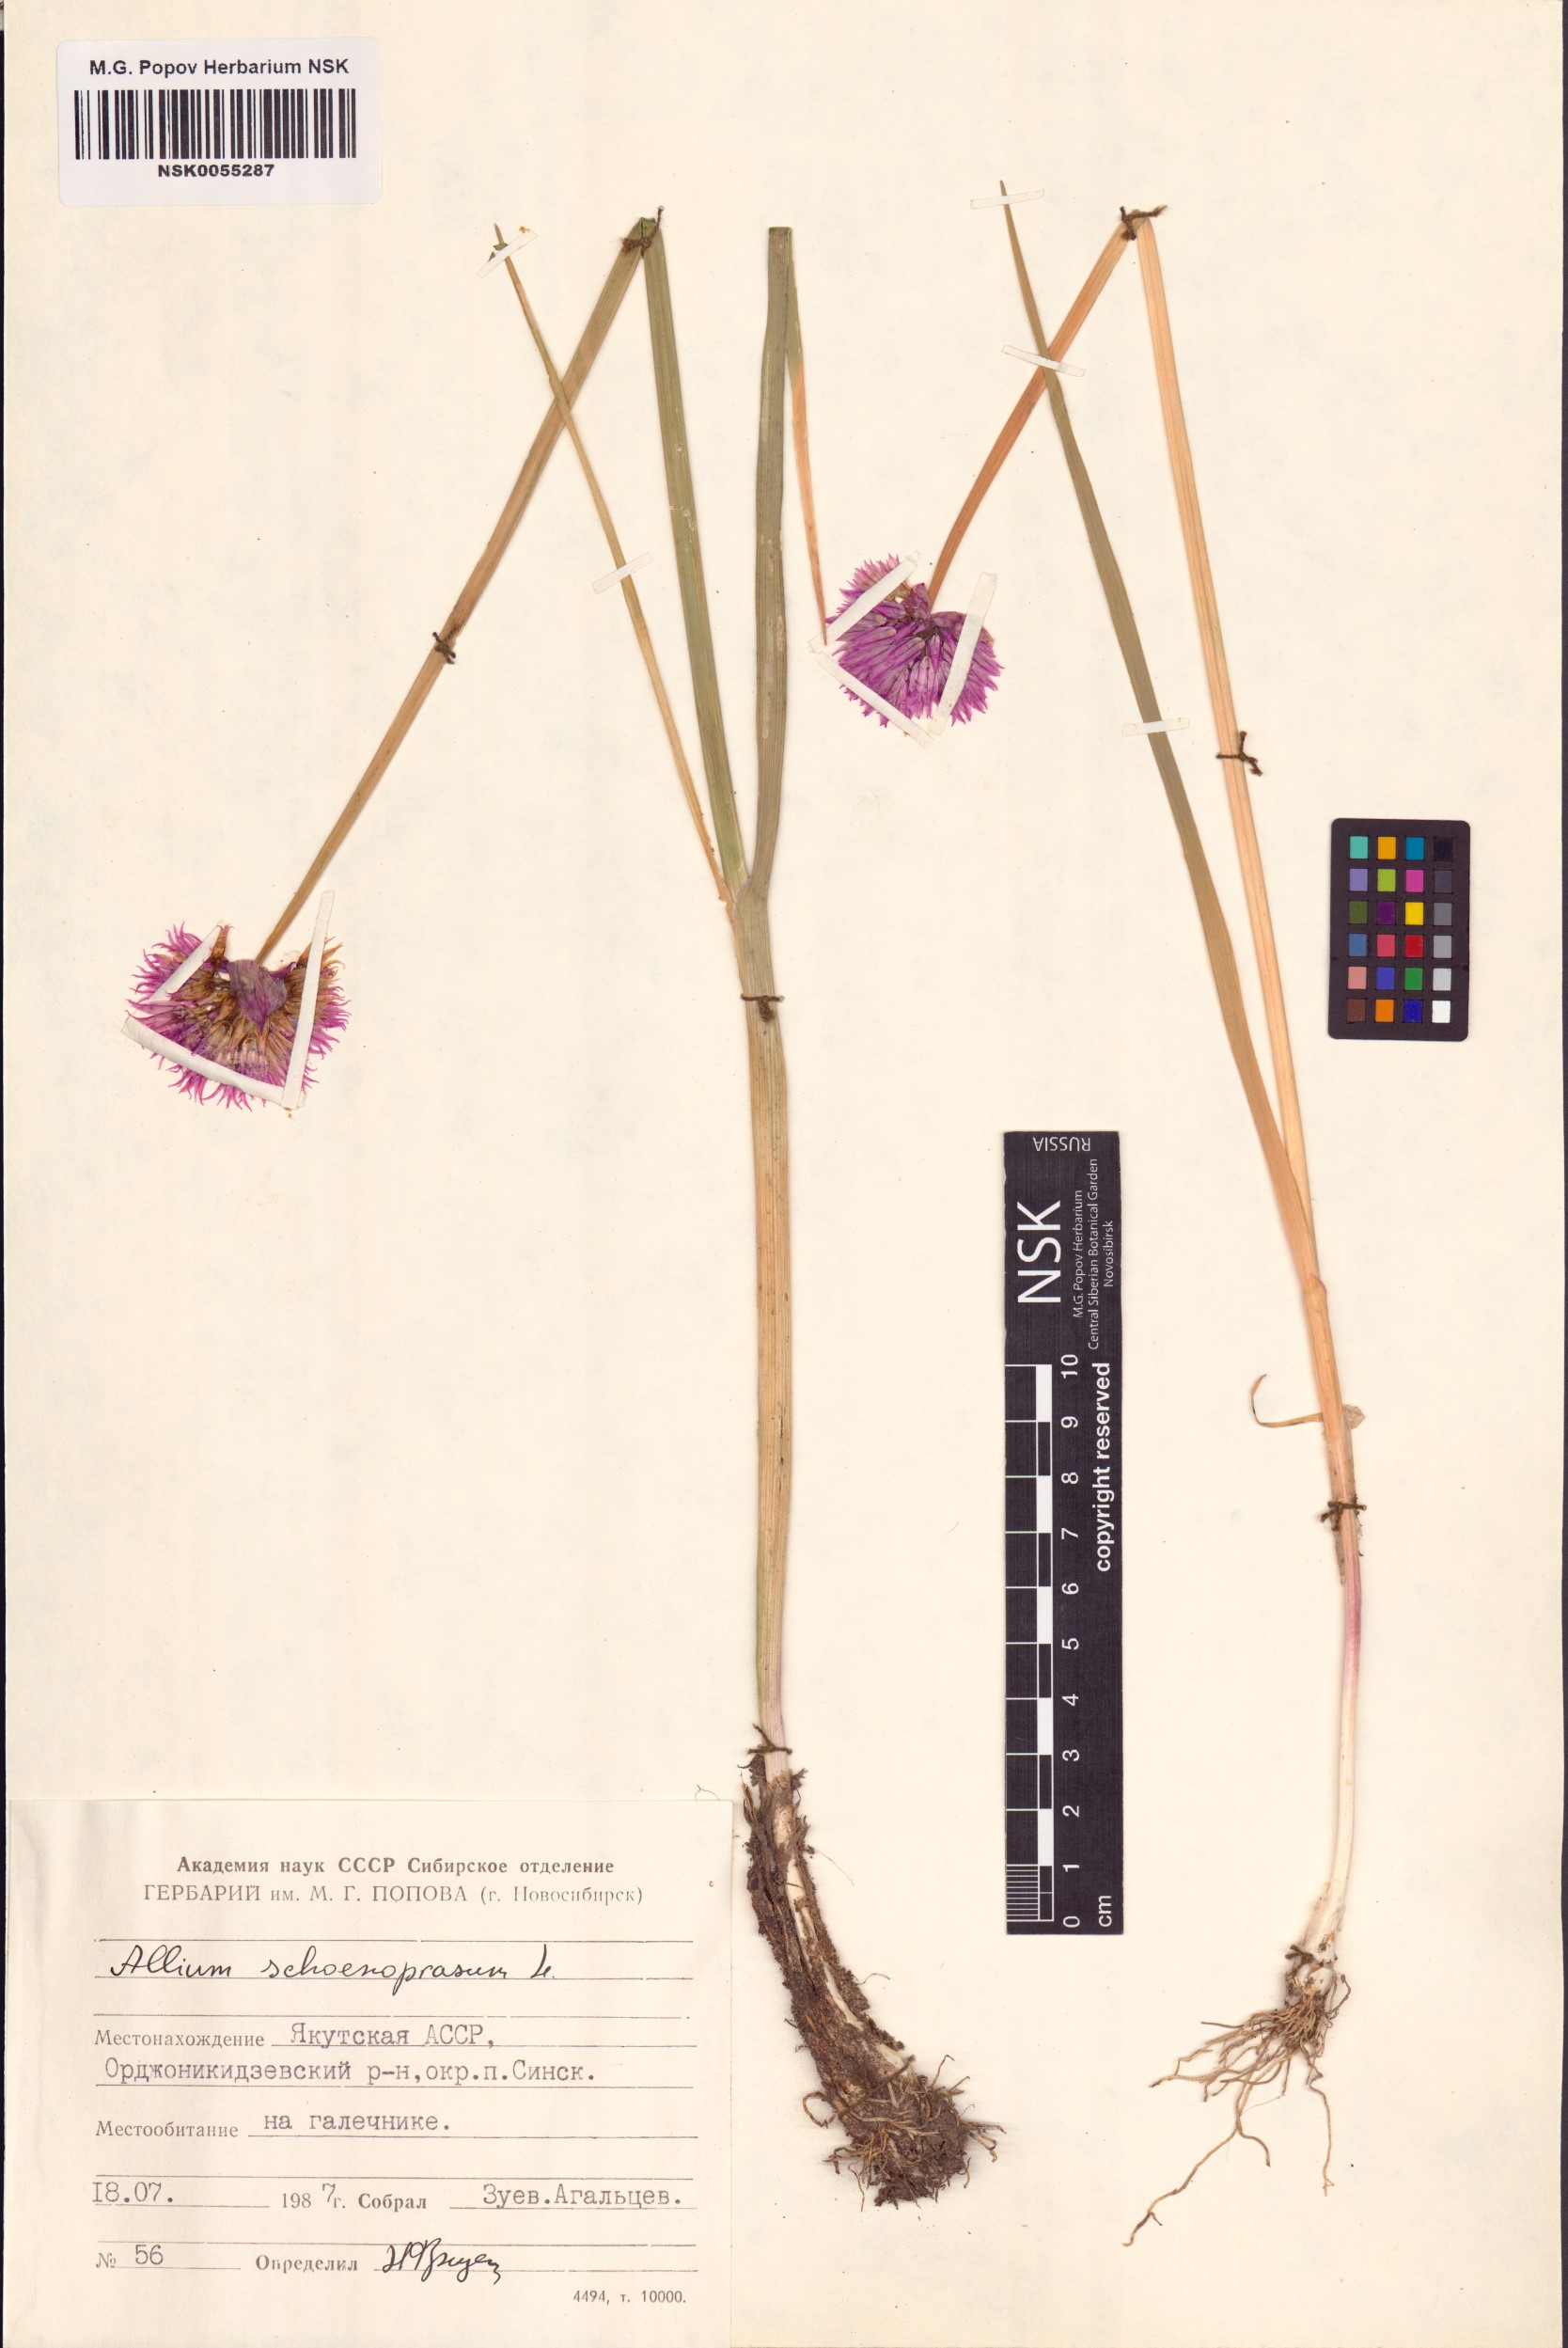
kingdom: Plantae
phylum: Tracheophyta
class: Liliopsida
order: Asparagales
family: Amaryllidaceae
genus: Allium
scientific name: Allium schoenoprasum
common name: Chives
